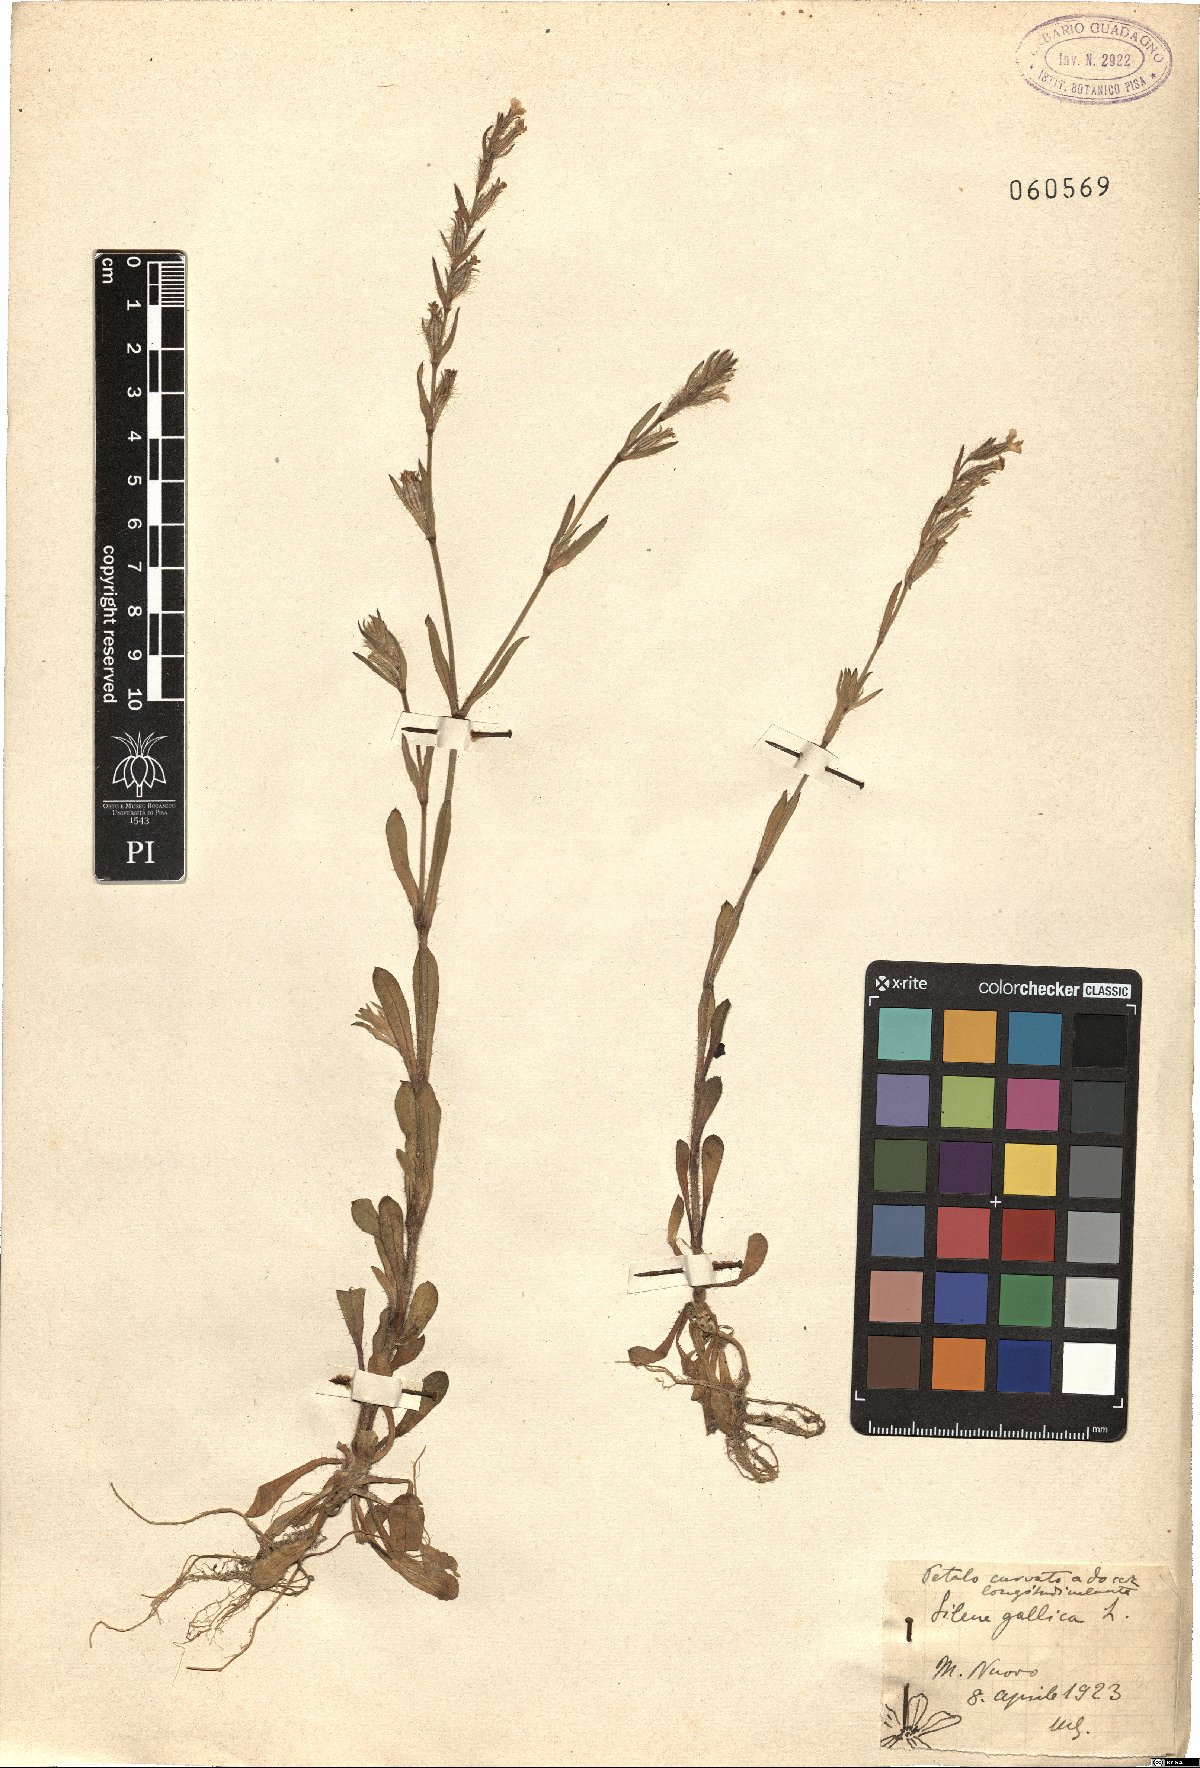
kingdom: Plantae
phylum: Tracheophyta
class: Magnoliopsida
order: Caryophyllales
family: Caryophyllaceae
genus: Silene
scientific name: Silene gallica
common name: Small-flowered catchfly
